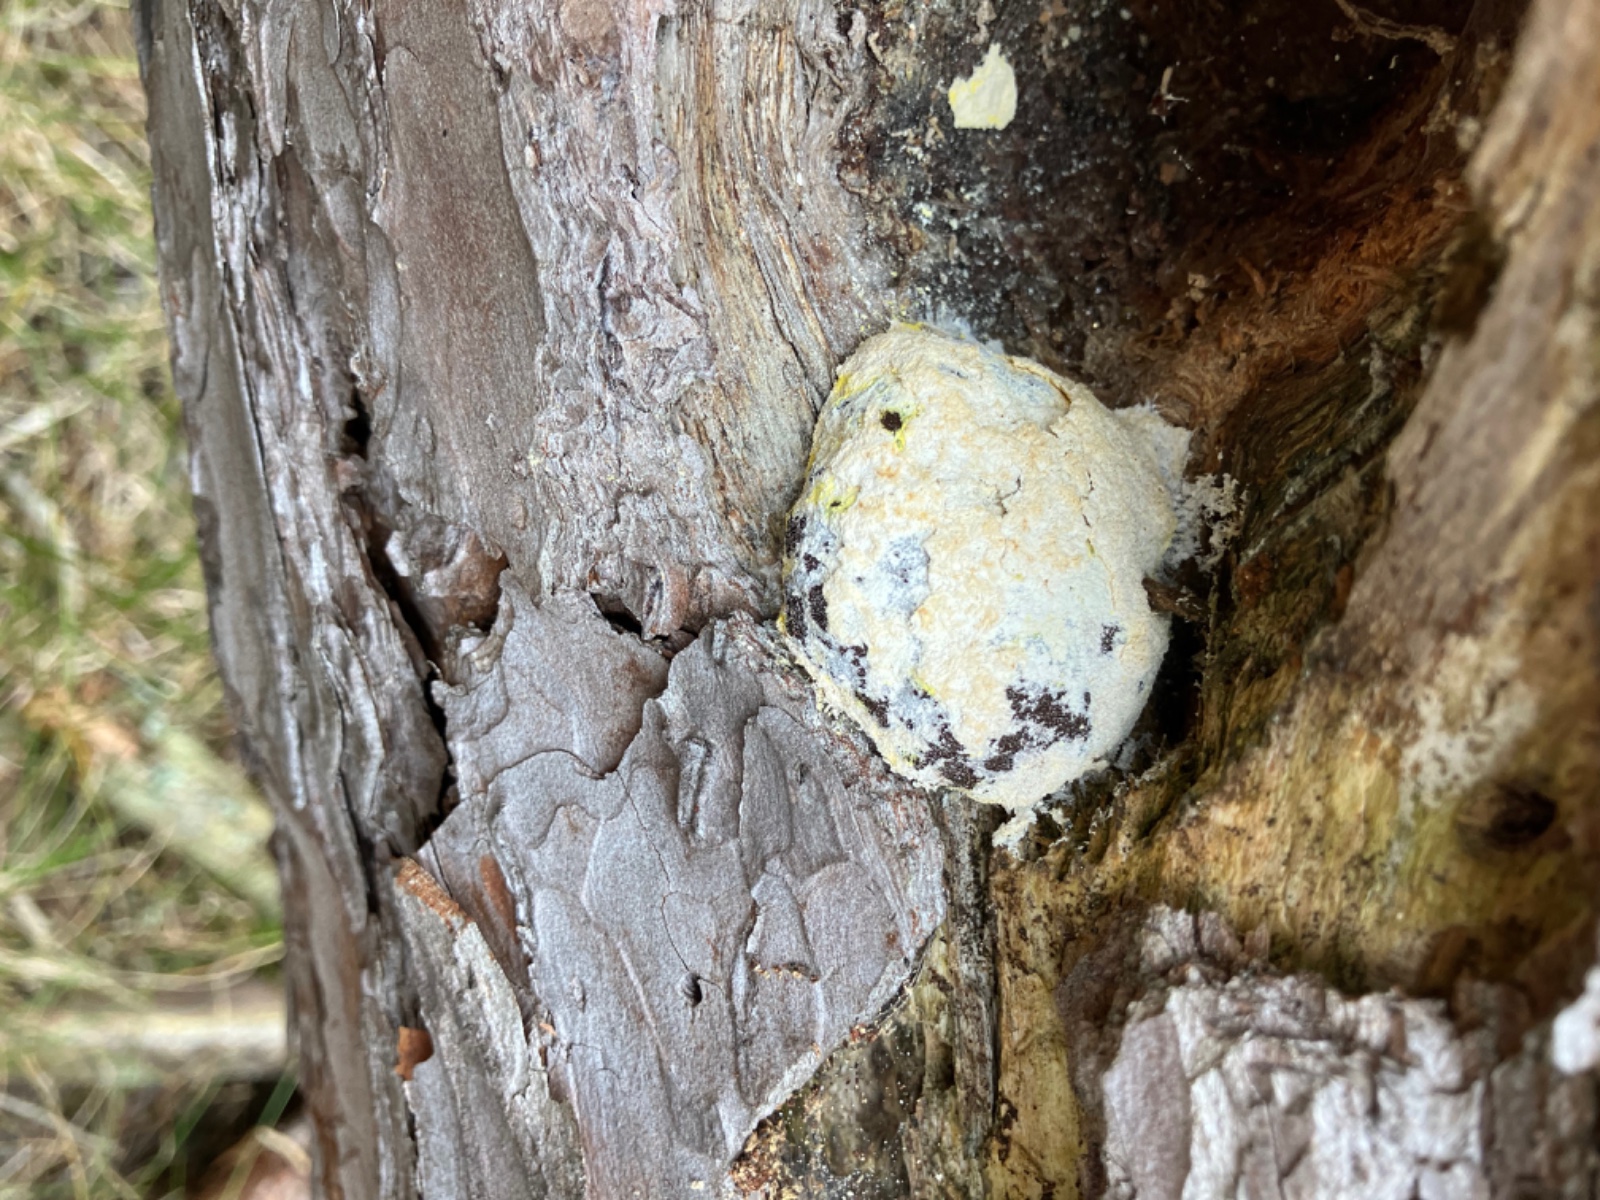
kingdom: Protozoa
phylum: Mycetozoa
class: Myxomycetes
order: Physarales
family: Physaraceae
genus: Fuligo
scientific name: Fuligo
